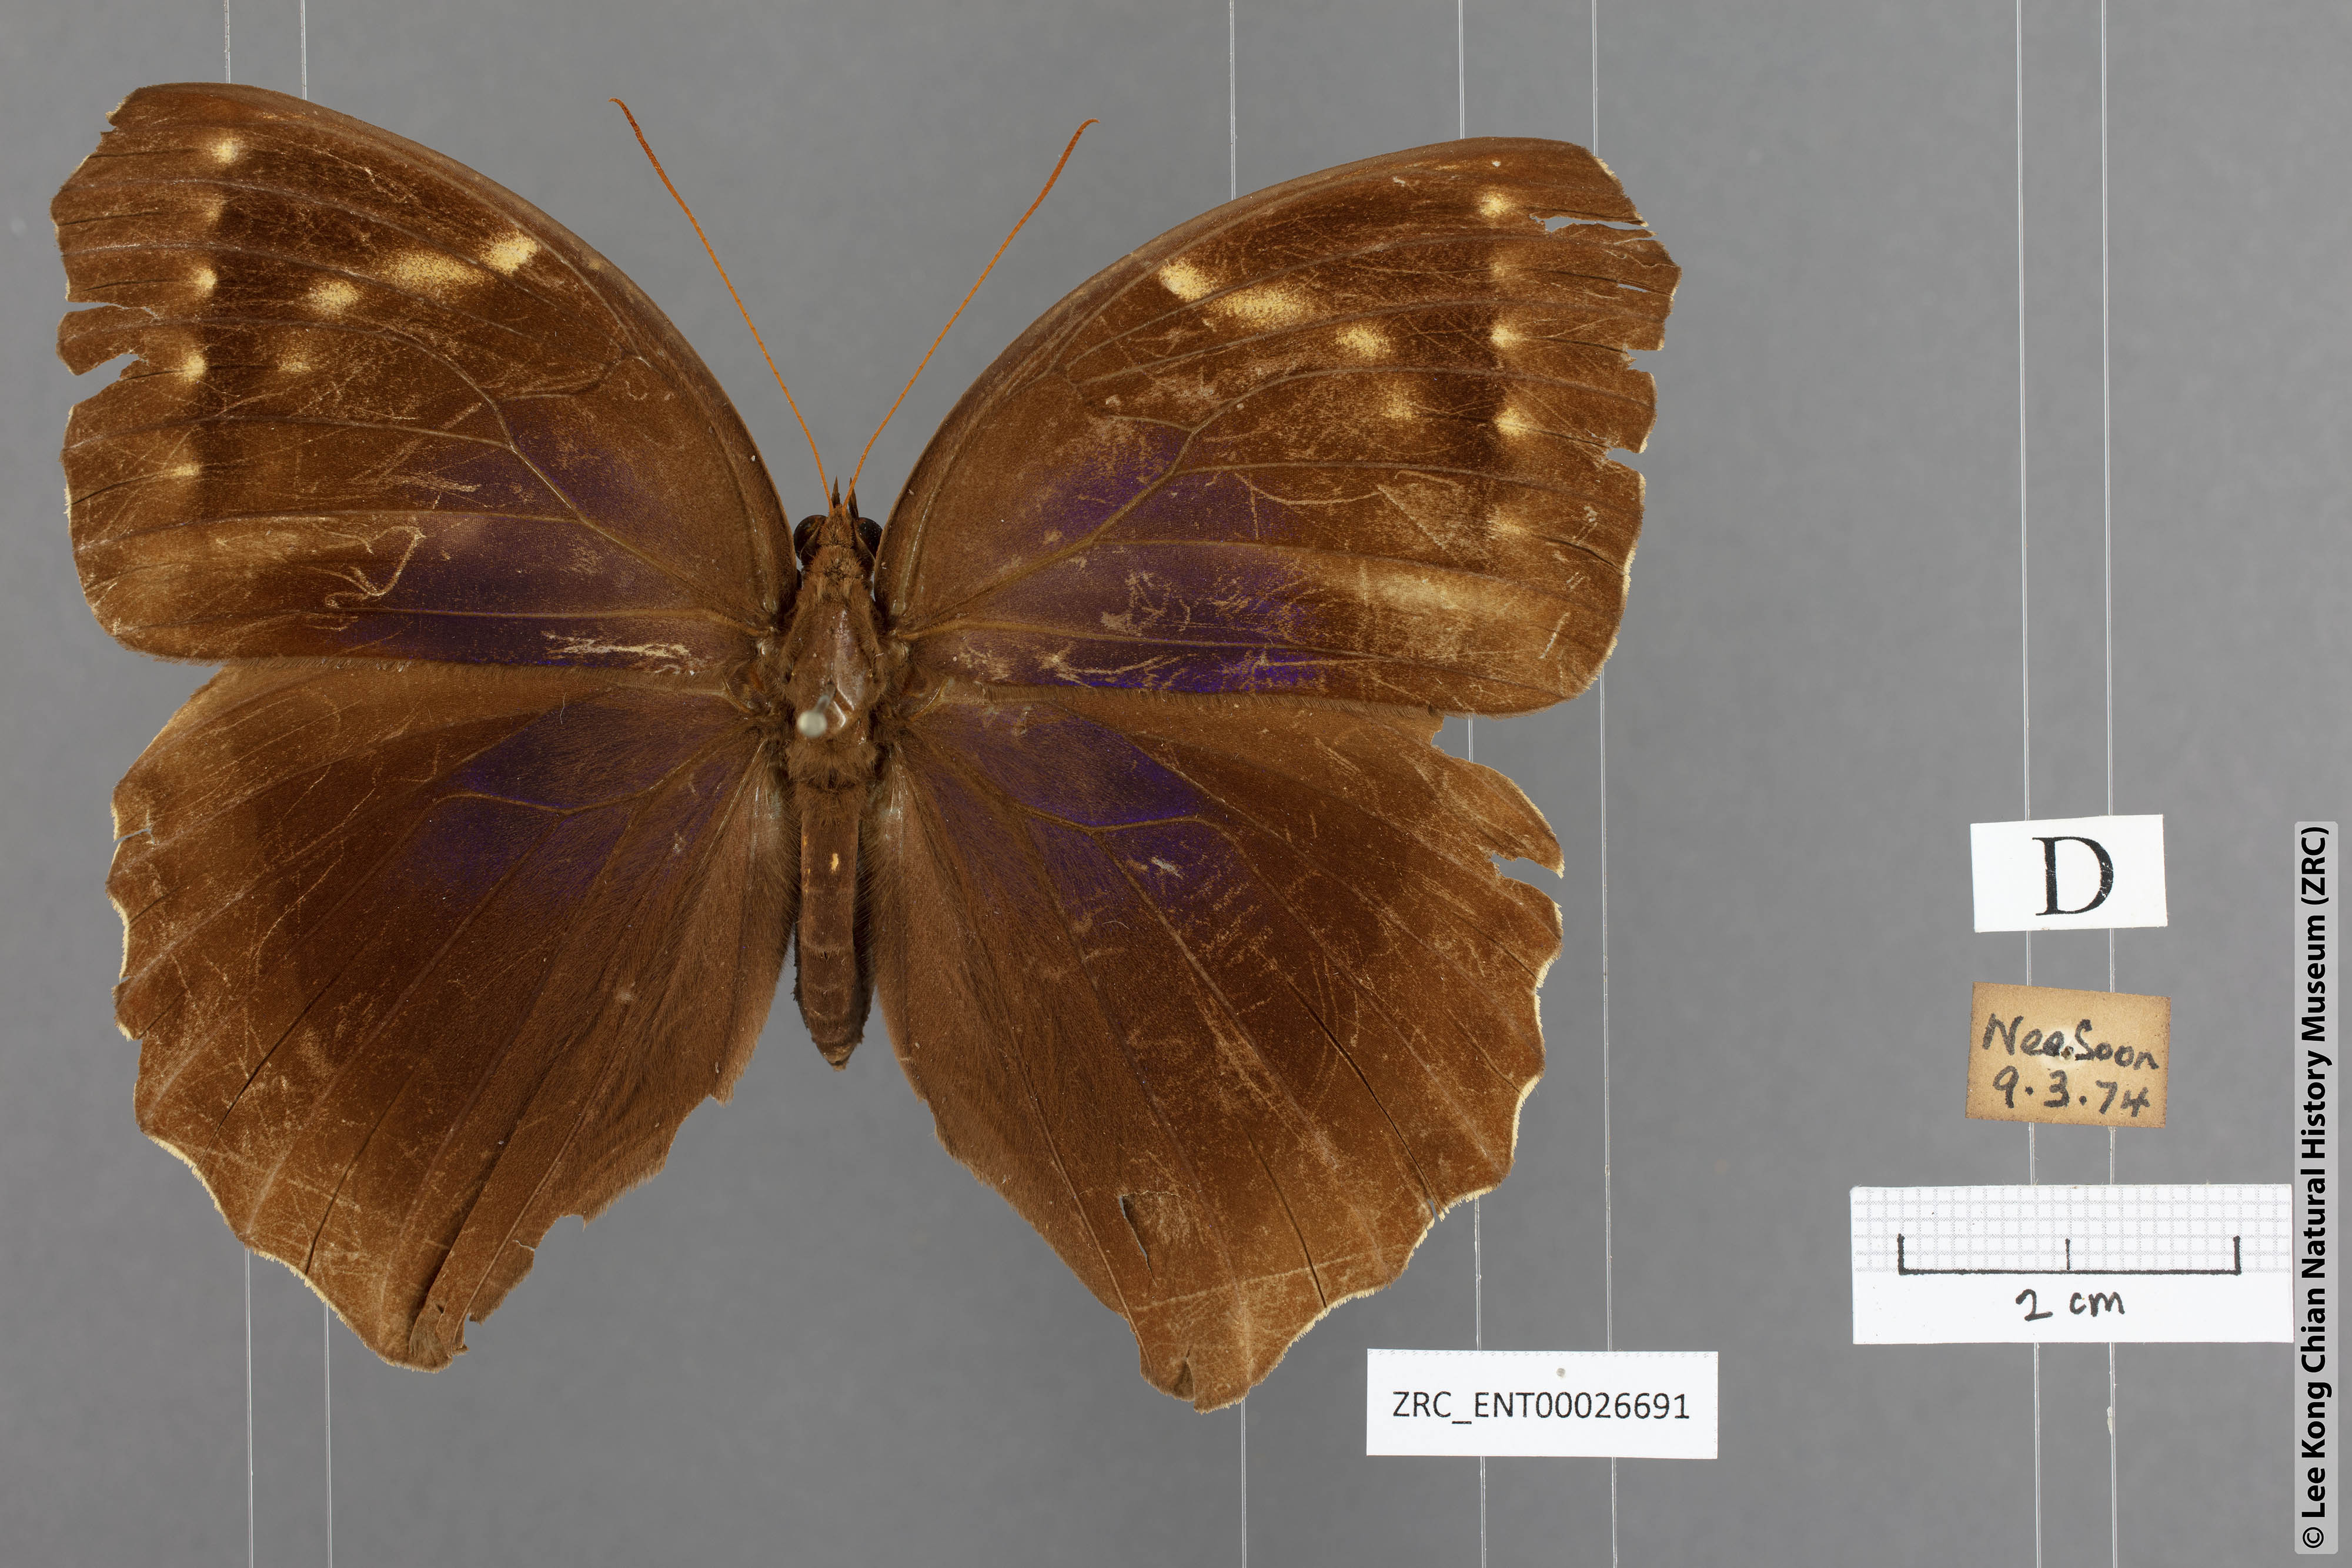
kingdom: Animalia
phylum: Arthropoda
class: Insecta
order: Lepidoptera
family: Nymphalidae
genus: Thaumantis
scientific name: Thaumantis noureddin
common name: Dark jungle glory
